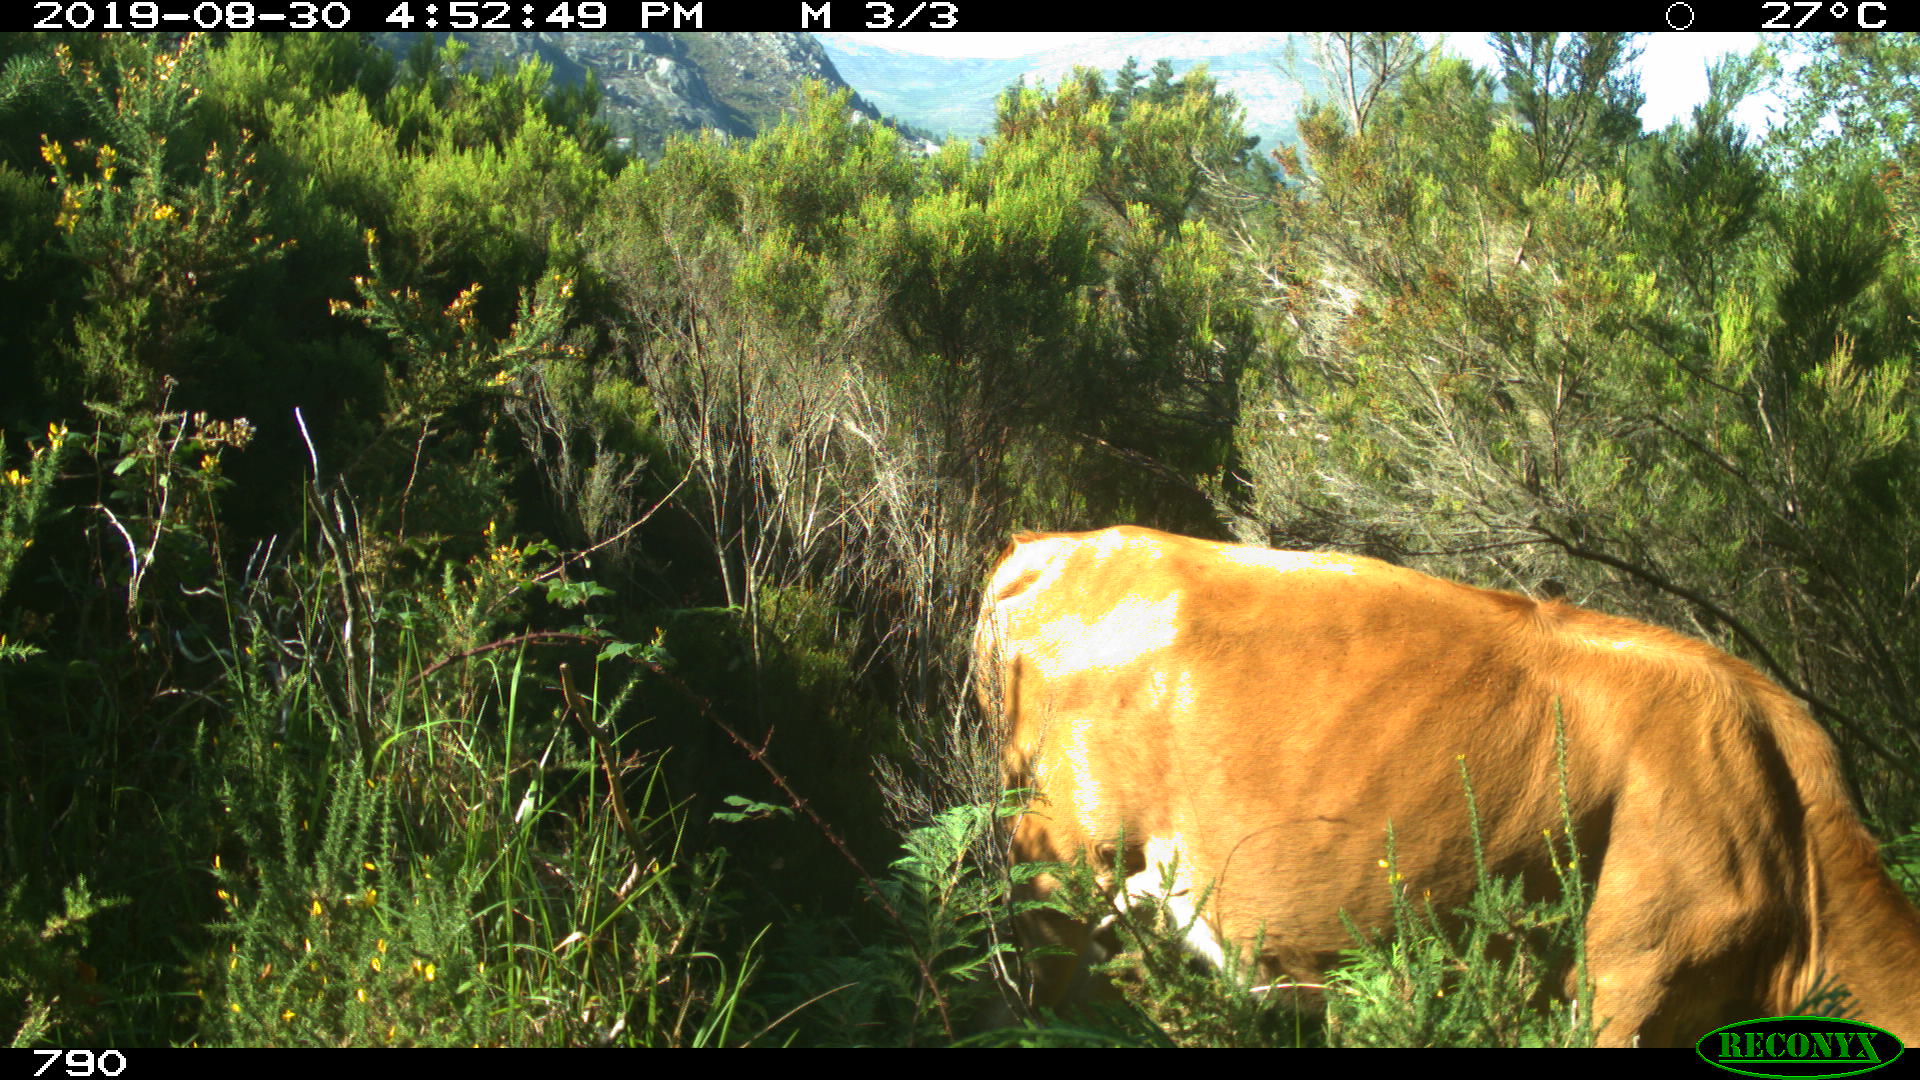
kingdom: Animalia
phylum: Chordata
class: Mammalia
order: Artiodactyla
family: Bovidae
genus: Bos
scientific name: Bos taurus
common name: Domesticated cattle
